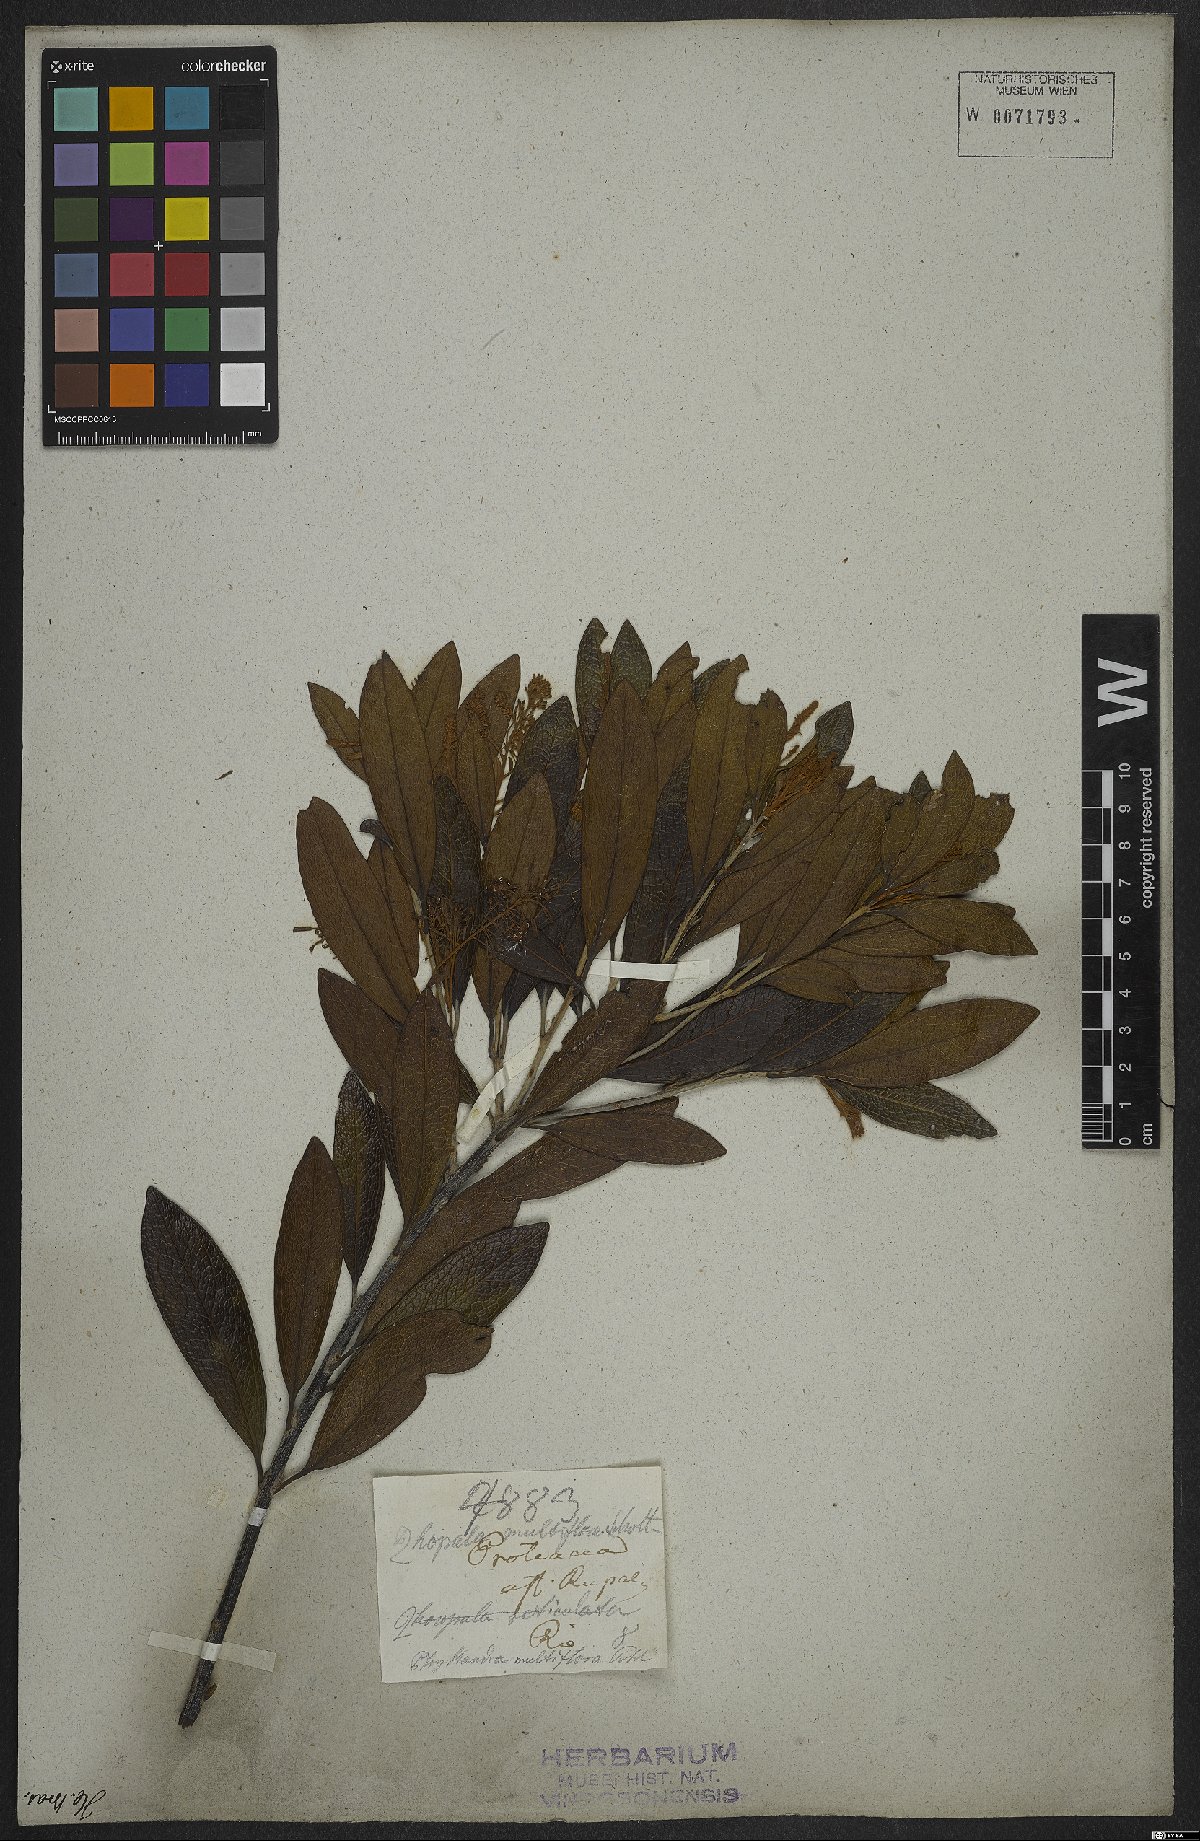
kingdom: Plantae
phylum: Tracheophyta
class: Magnoliopsida
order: Proteales
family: Proteaceae
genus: Panopsis
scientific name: Panopsis multiflora
